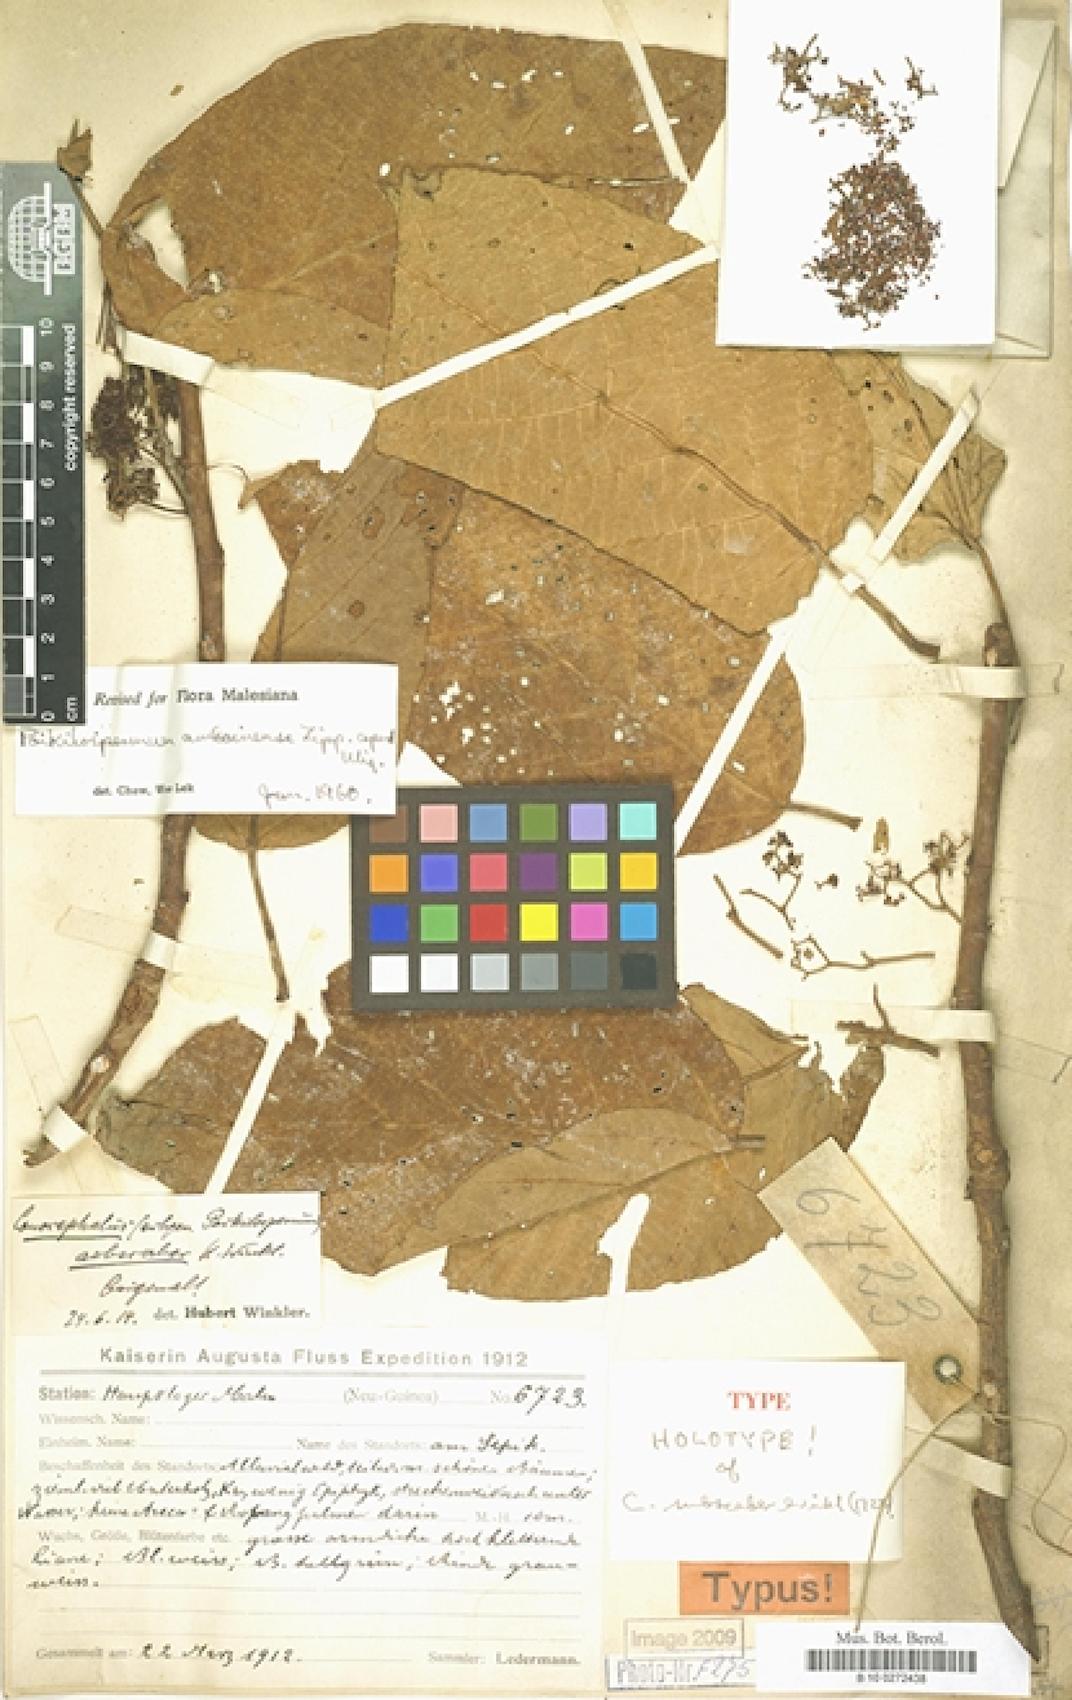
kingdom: Plantae
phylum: Tracheophyta
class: Magnoliopsida
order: Rosales
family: Urticaceae
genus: Poikilospermum
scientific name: Poikilospermum amboinense
